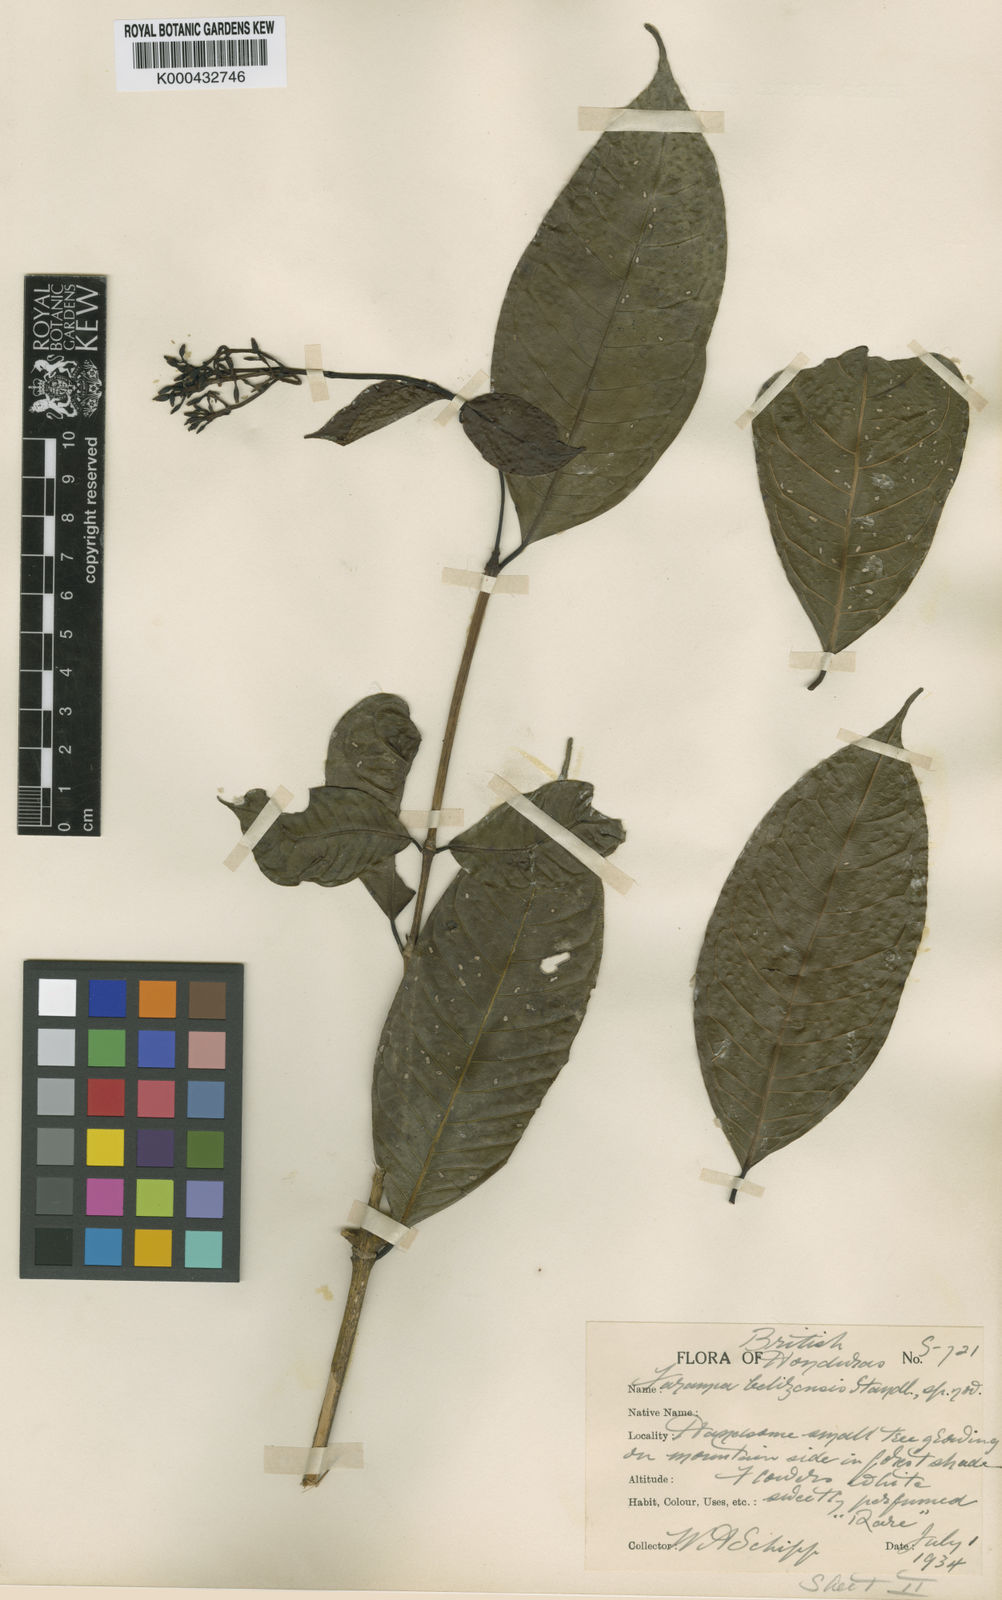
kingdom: Plantae
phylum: Tracheophyta
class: Magnoliopsida
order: Gentianales
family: Rubiaceae
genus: Faramea
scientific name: Faramea belizensis
